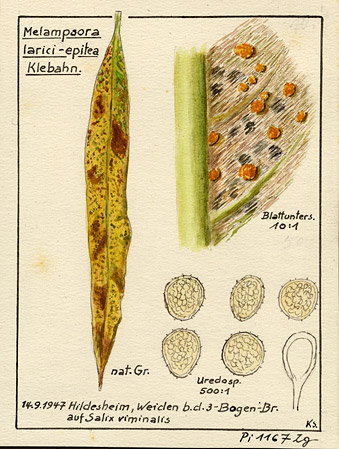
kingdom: Plantae
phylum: Tracheophyta
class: Magnoliopsida
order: Malpighiales
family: Salicaceae
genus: Salix
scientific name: Salix viminalis
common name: Osier
